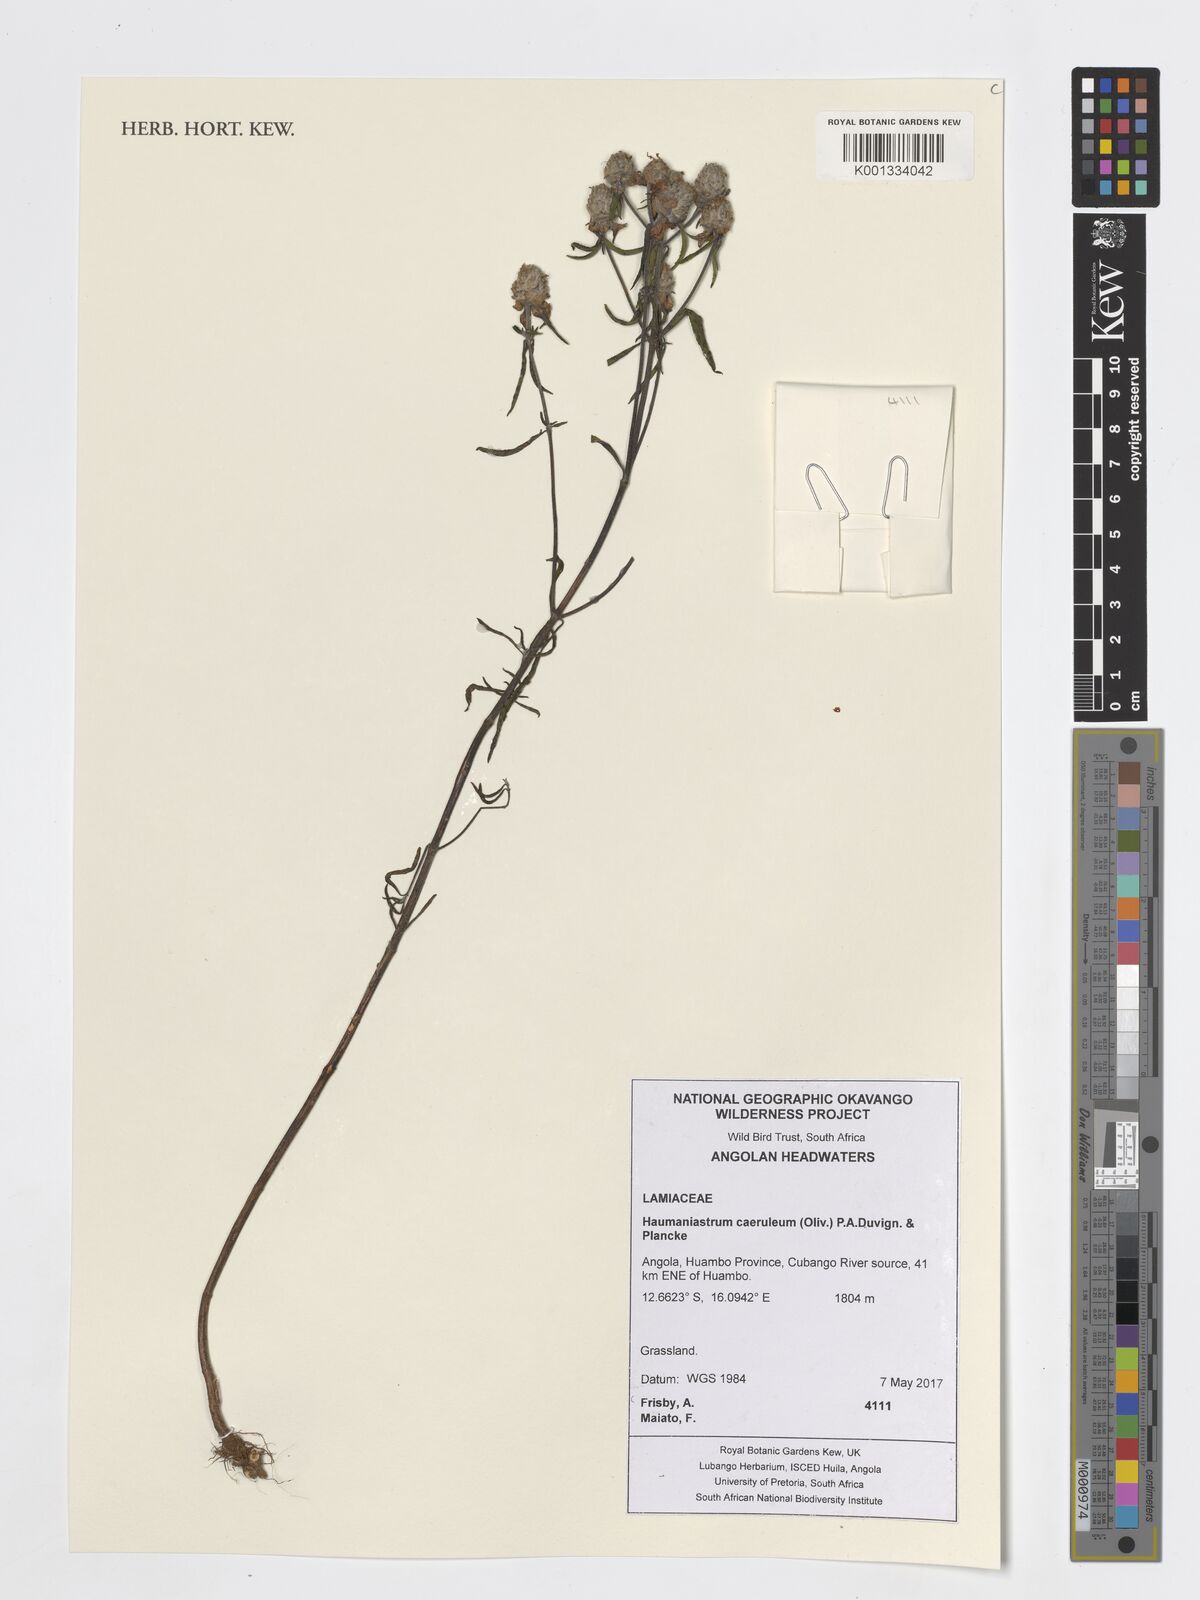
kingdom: Plantae
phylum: Tracheophyta
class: Magnoliopsida
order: Lamiales
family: Lamiaceae
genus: Haumaniastrum
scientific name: Haumaniastrum caeruleum
